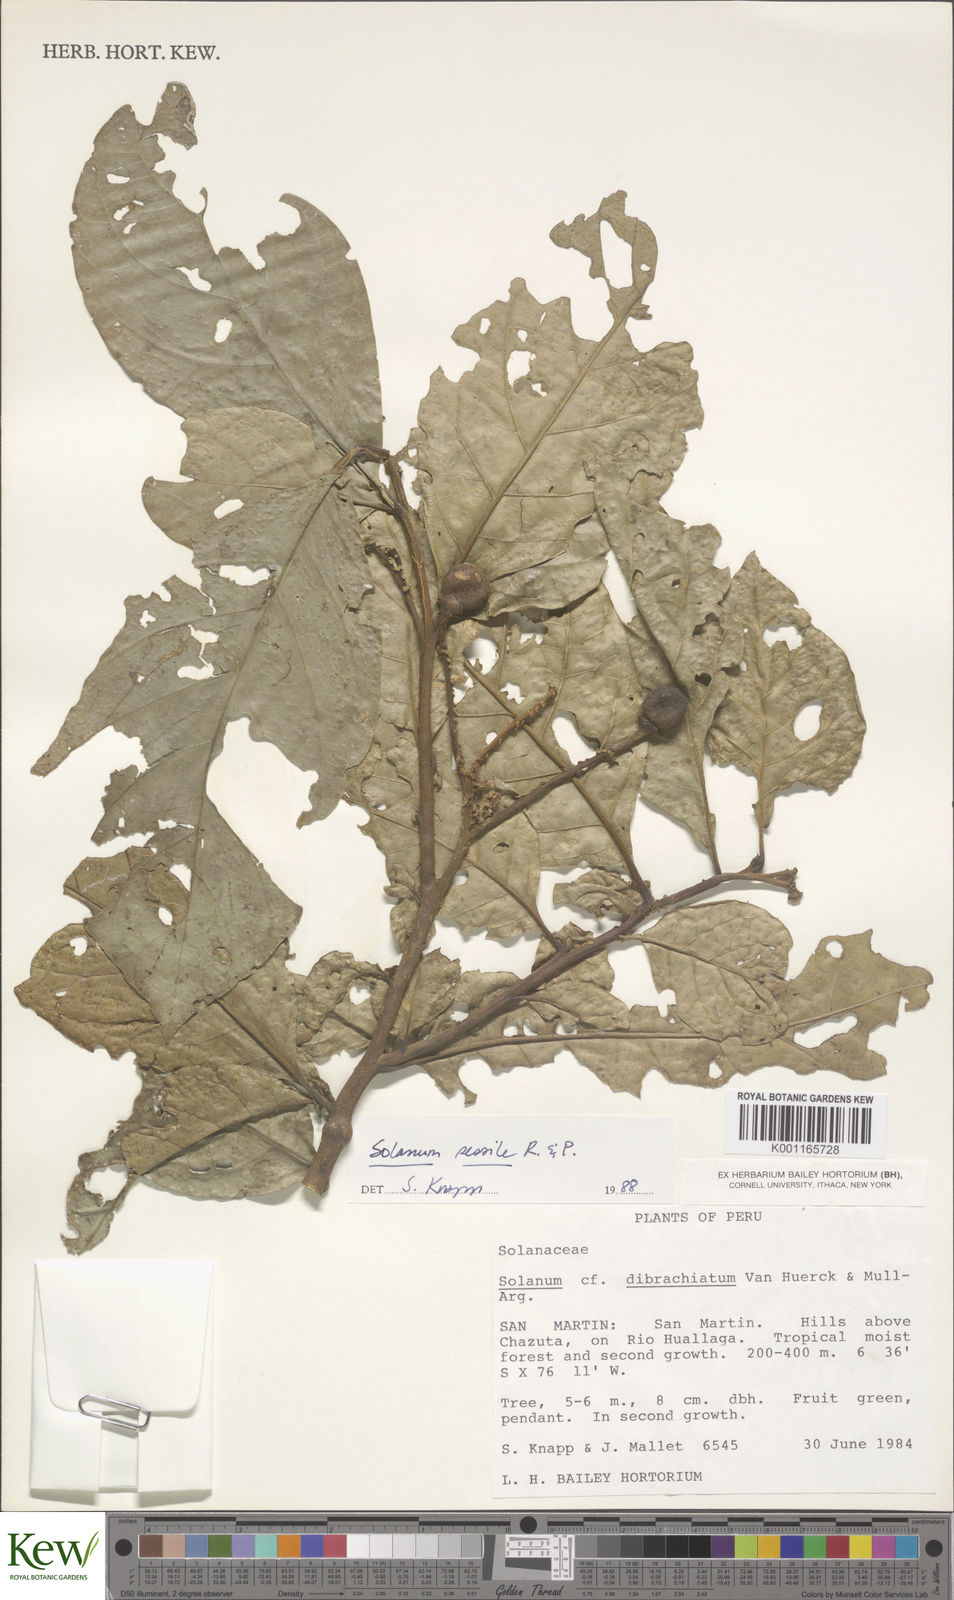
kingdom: Plantae
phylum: Tracheophyta
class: Magnoliopsida
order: Solanales
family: Solanaceae
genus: Solanum
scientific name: Solanum sessile
